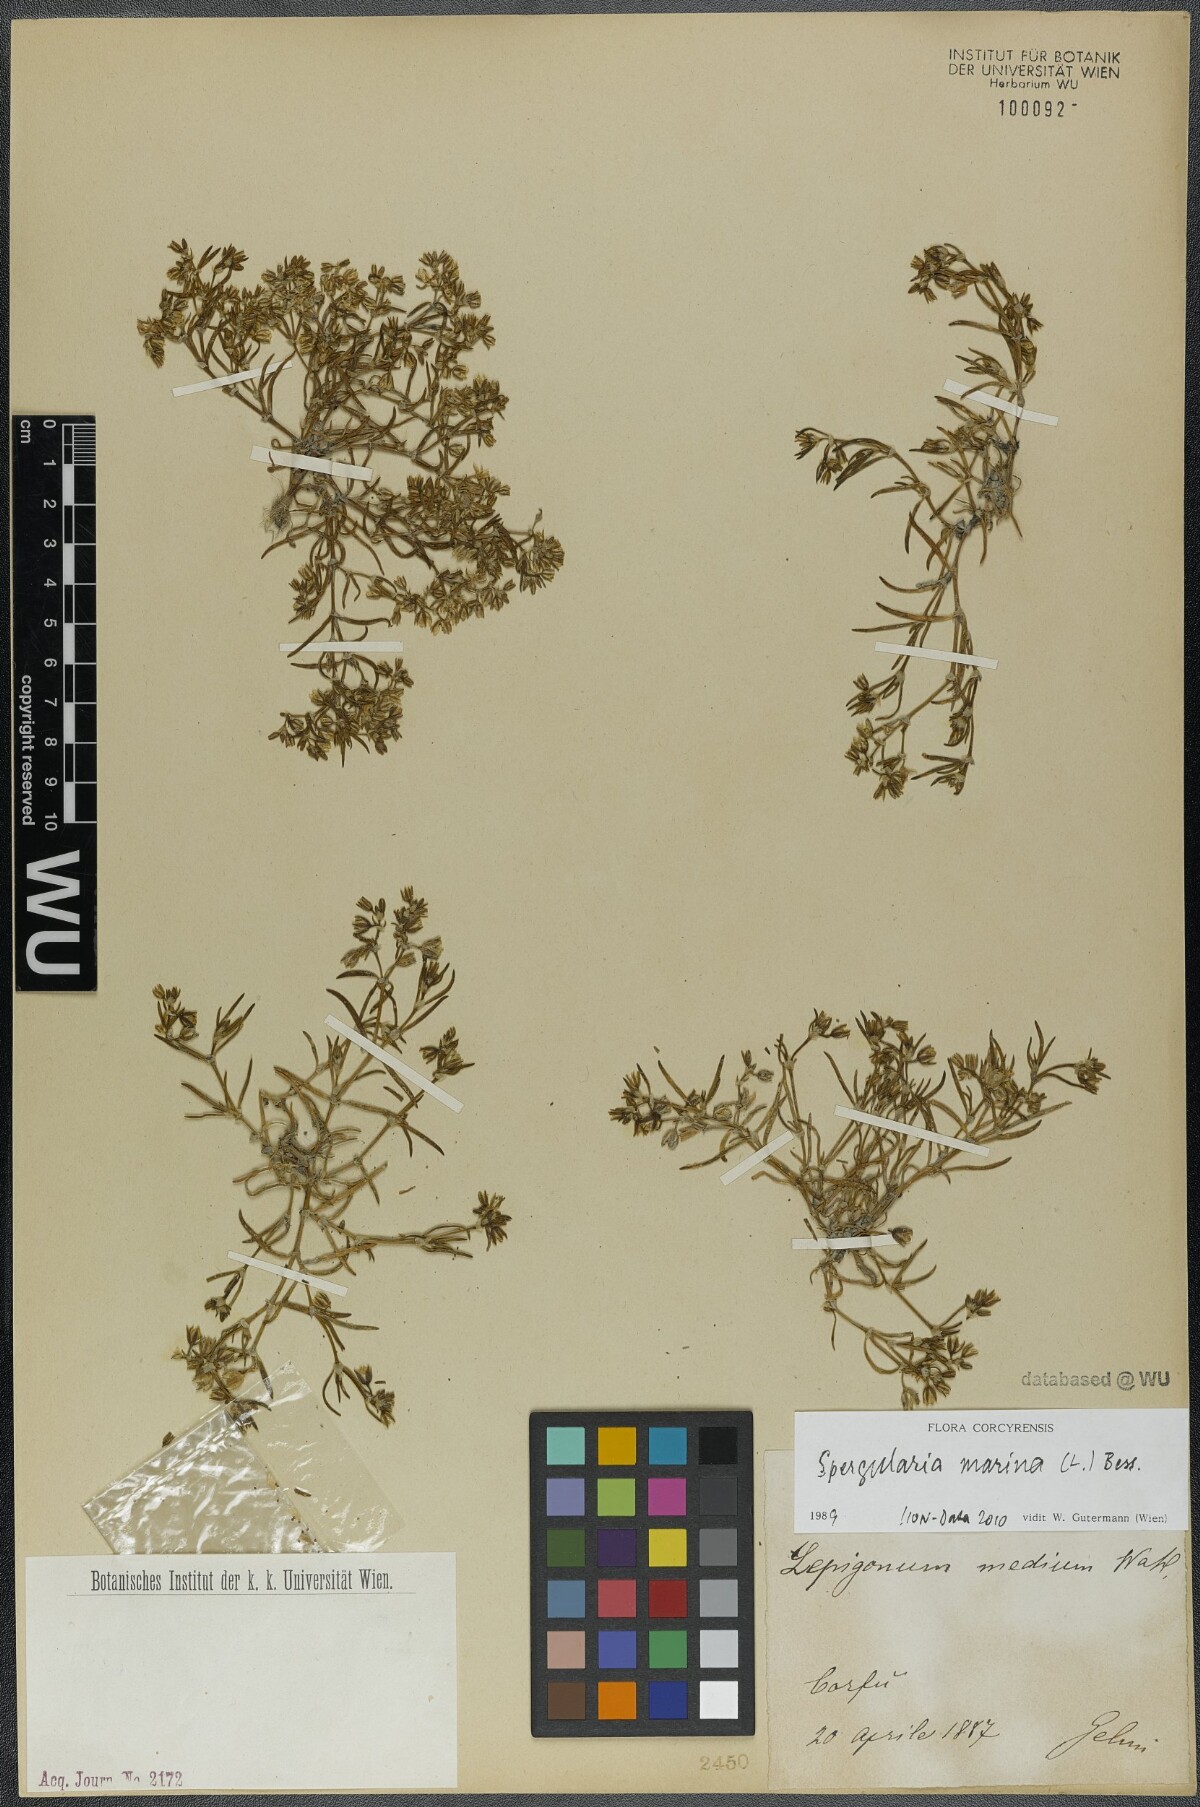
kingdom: Plantae
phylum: Tracheophyta
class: Magnoliopsida
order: Caryophyllales
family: Caryophyllaceae
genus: Spergularia
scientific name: Spergularia marina
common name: Lesser sea-spurrey
